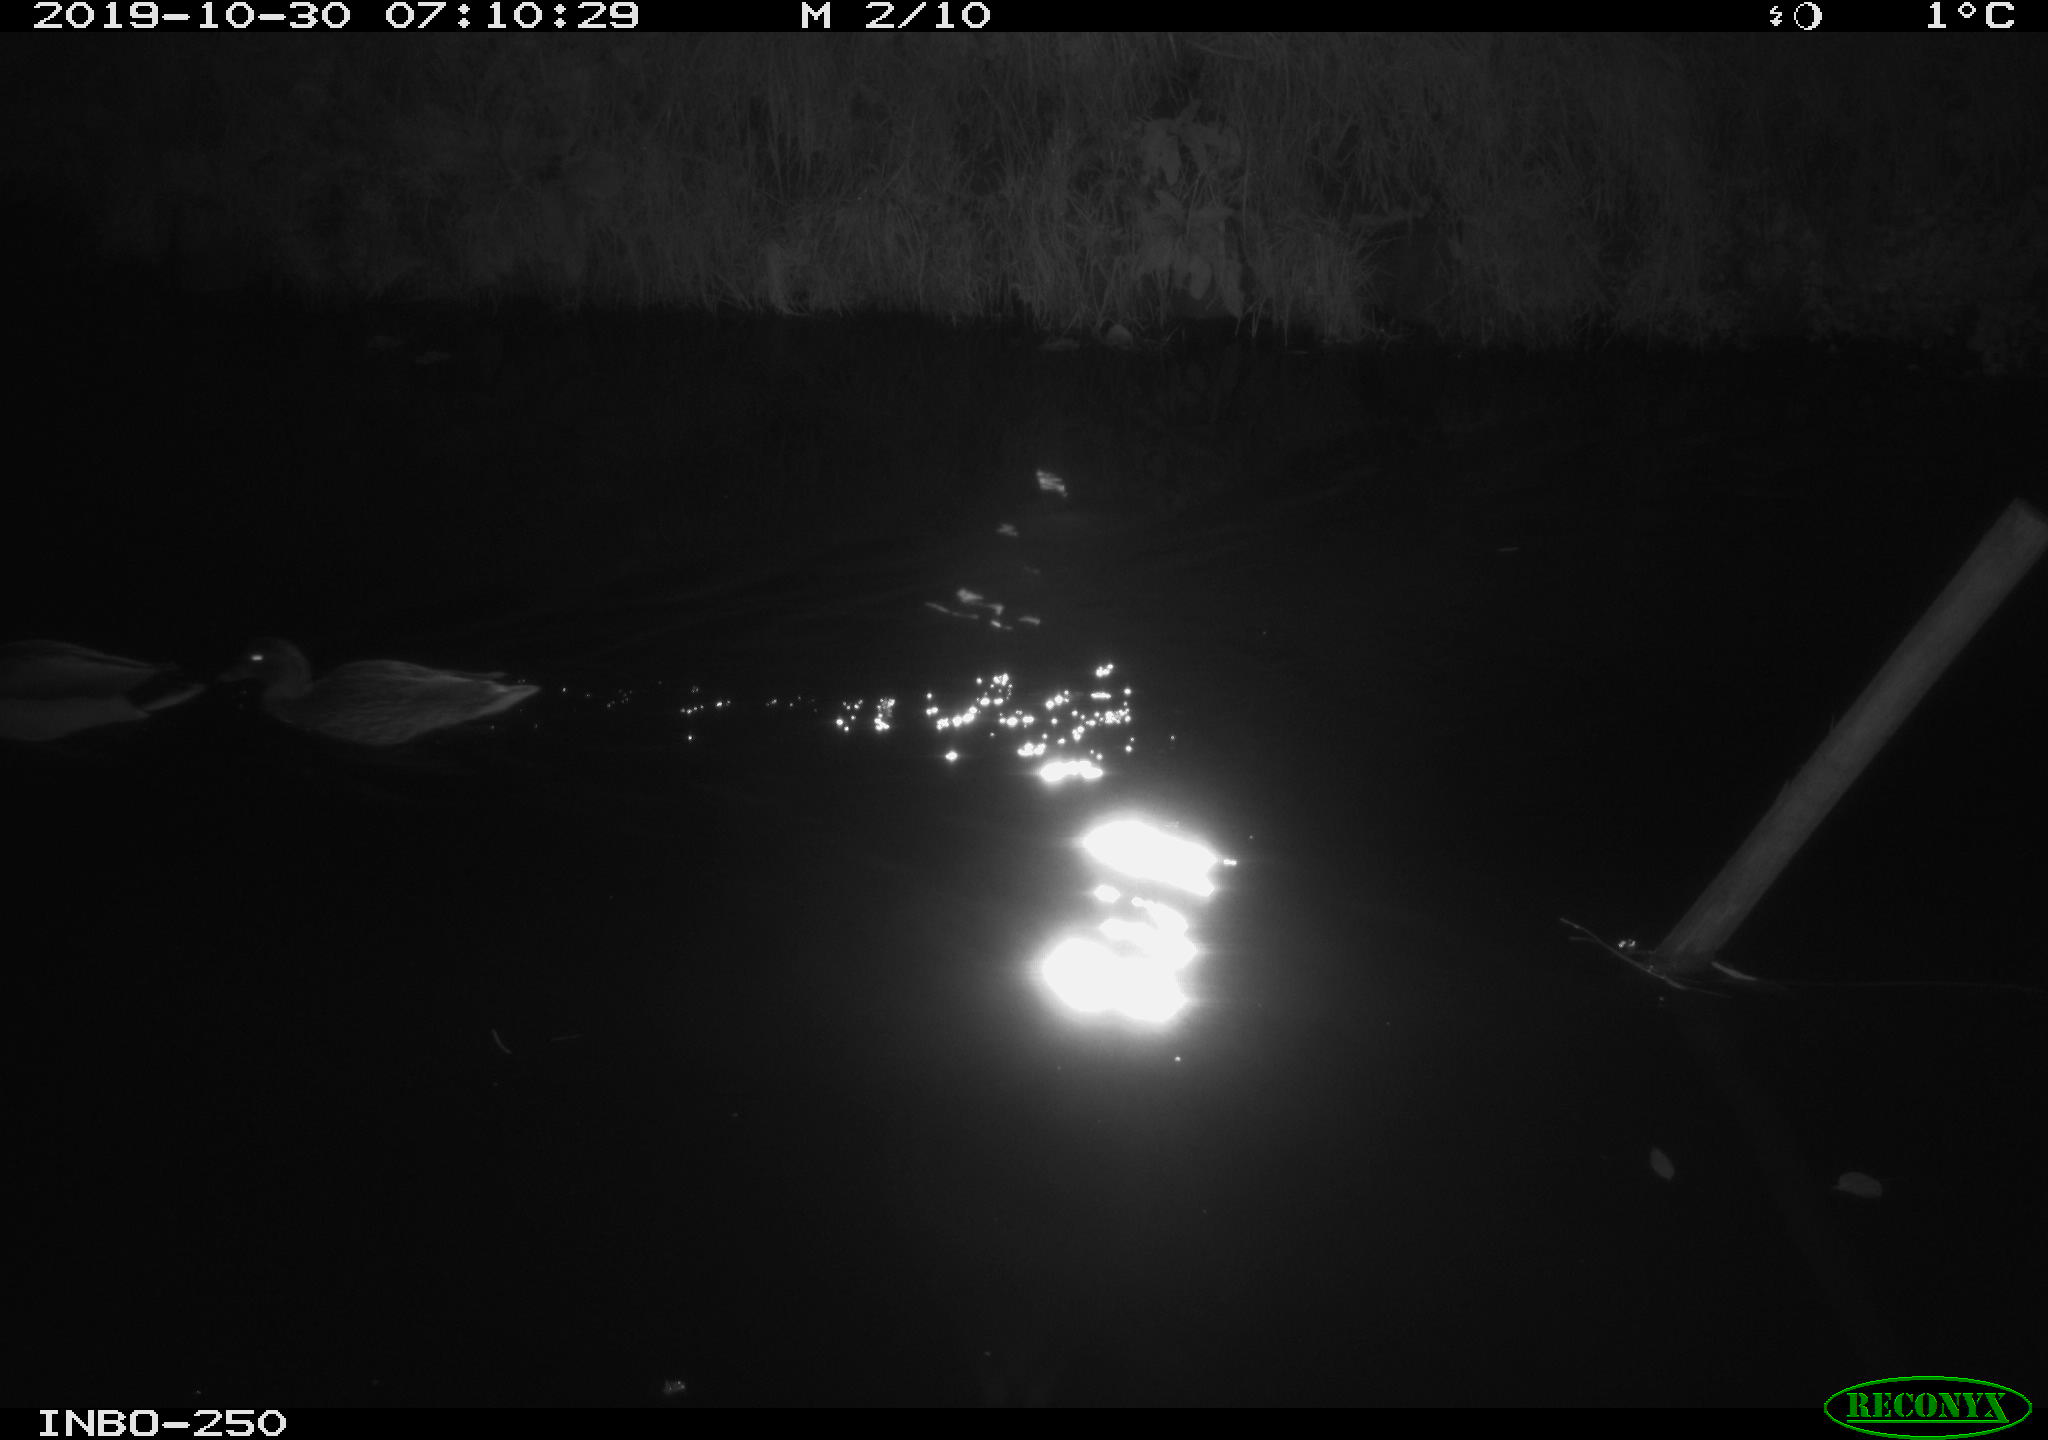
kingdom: Animalia
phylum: Chordata
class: Aves
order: Anseriformes
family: Anatidae
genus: Anas
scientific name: Anas platyrhynchos
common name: Mallard
